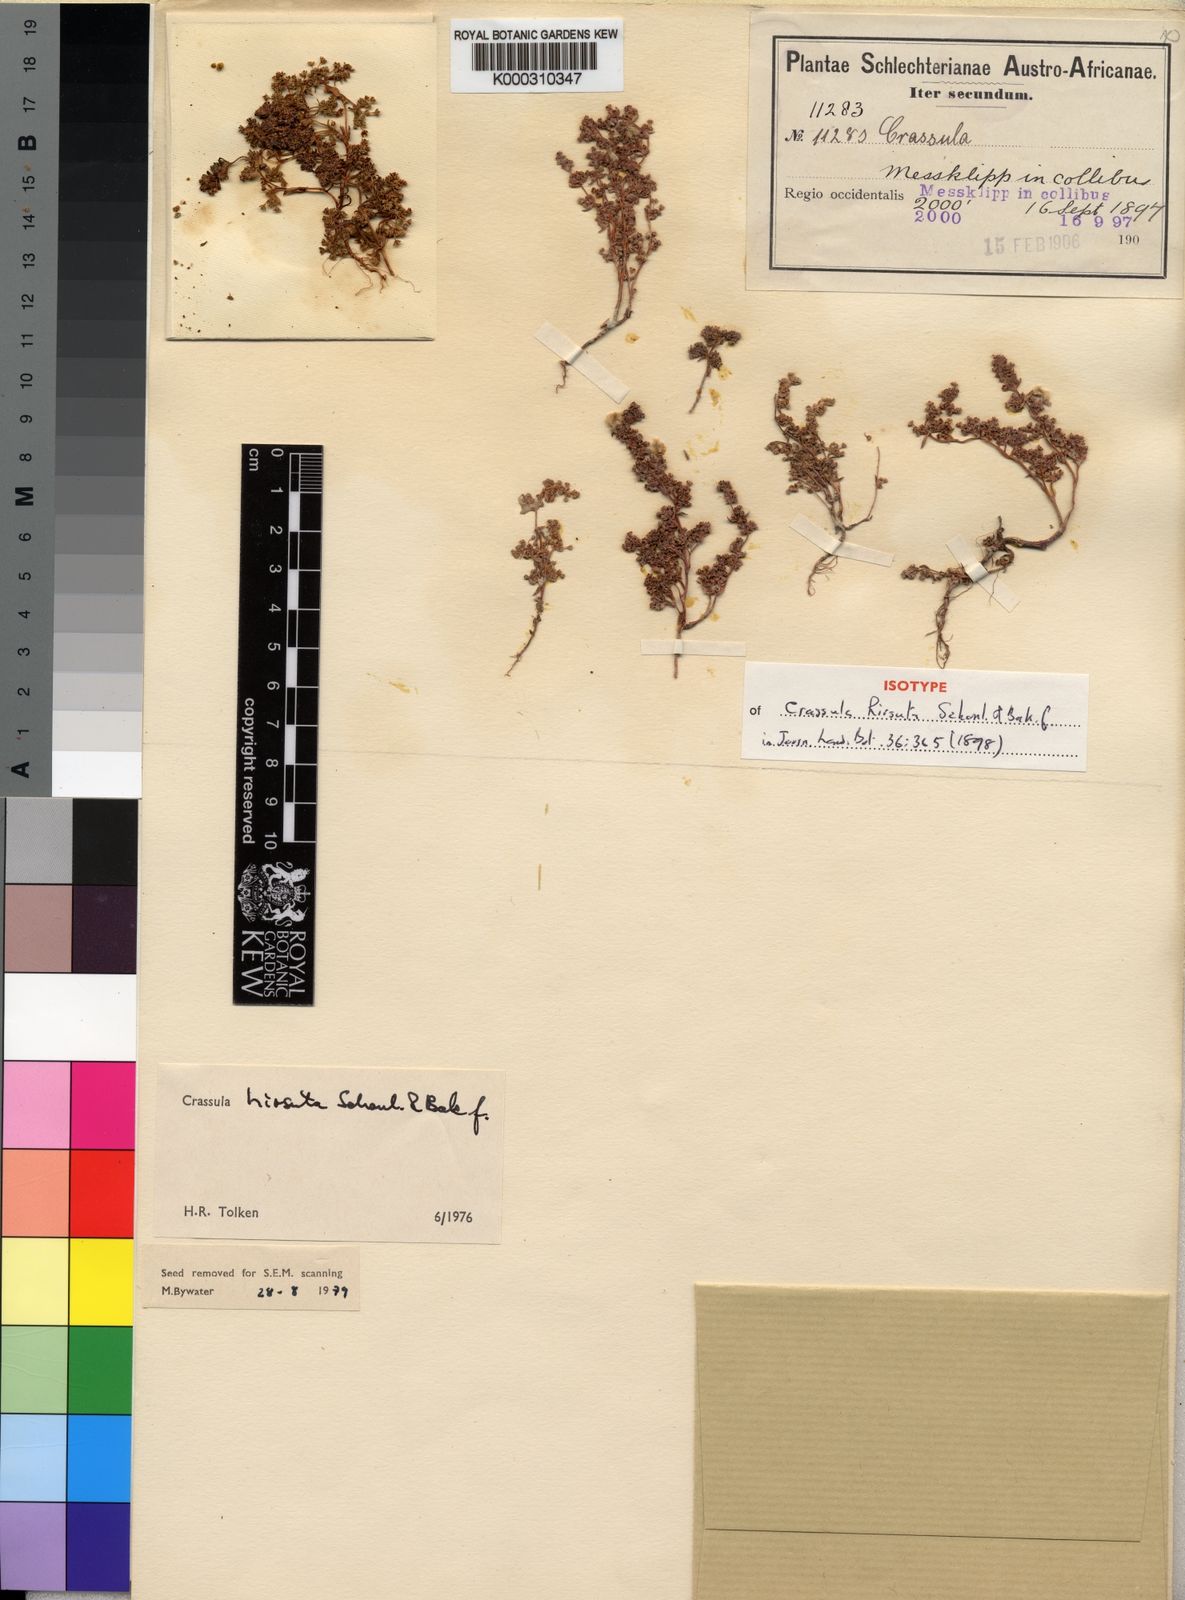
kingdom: Plantae
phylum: Tracheophyta
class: Magnoliopsida
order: Saxifragales
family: Crassulaceae
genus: Crassula
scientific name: Crassula
